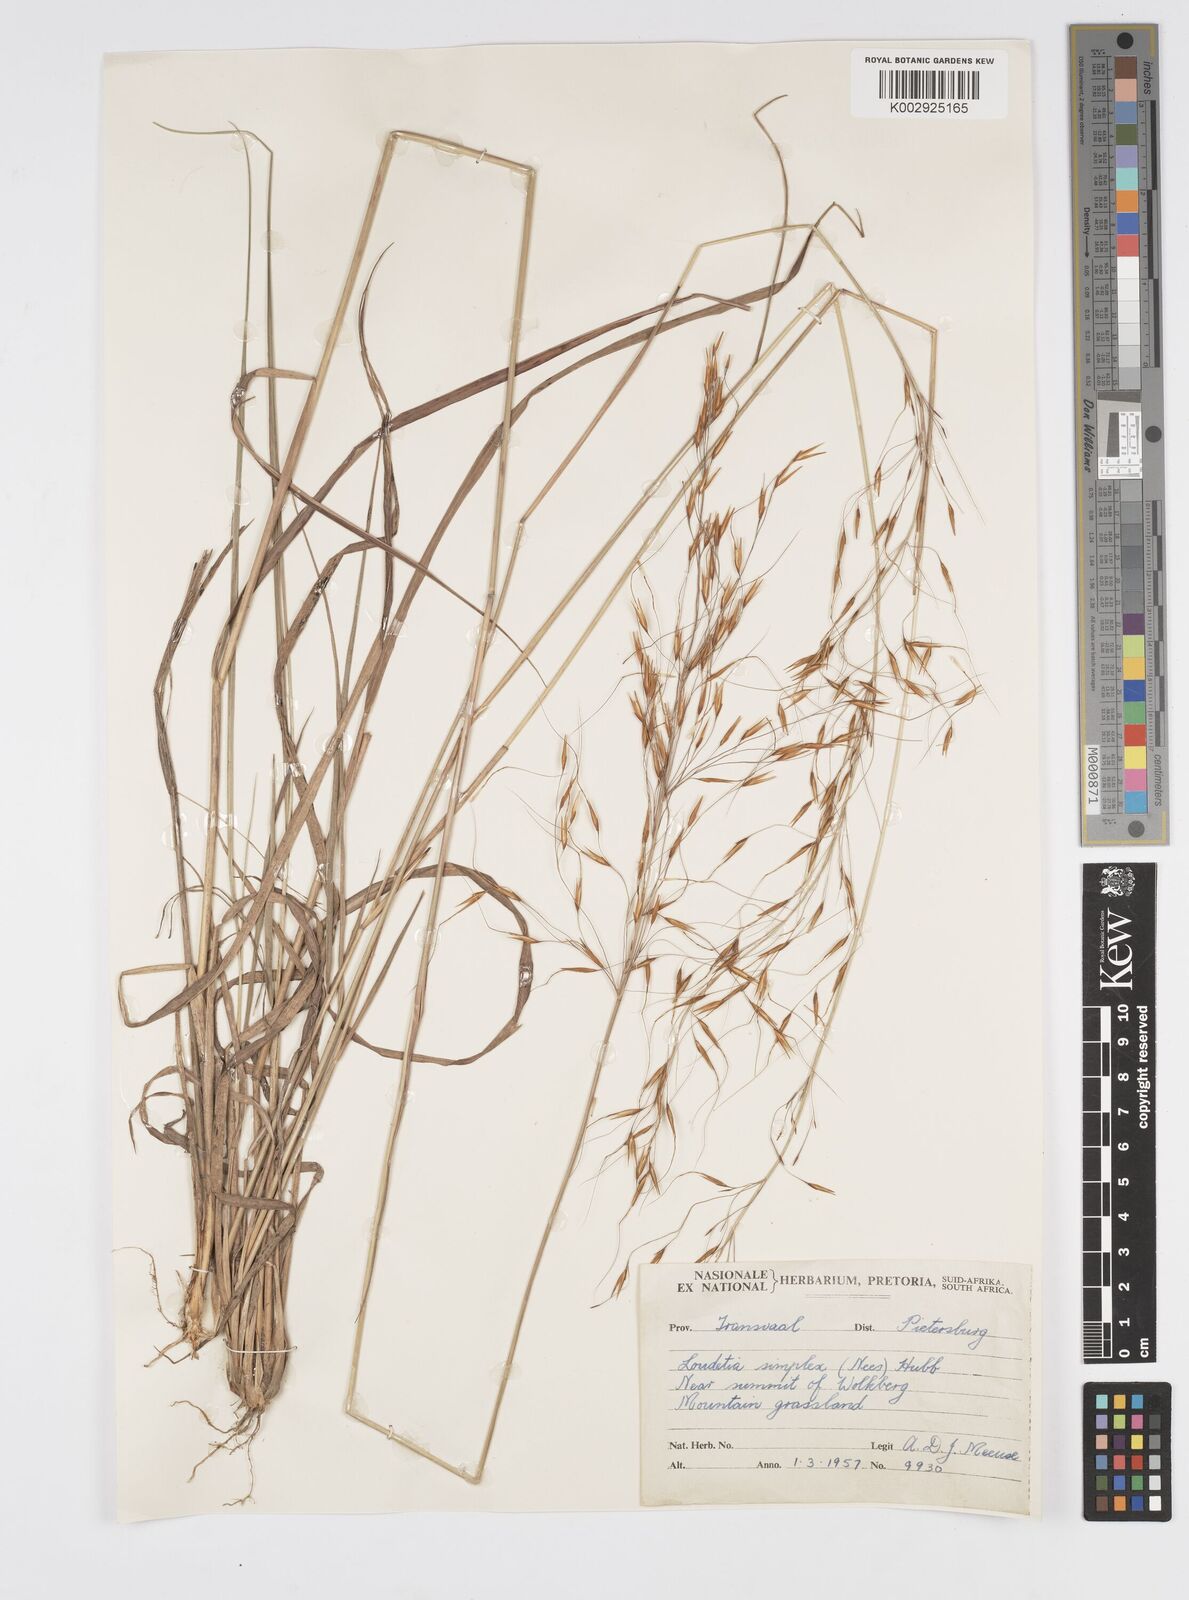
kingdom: Plantae
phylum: Tracheophyta
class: Liliopsida
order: Poales
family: Poaceae
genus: Loudetia
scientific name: Loudetia simplex
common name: Common russet grass
